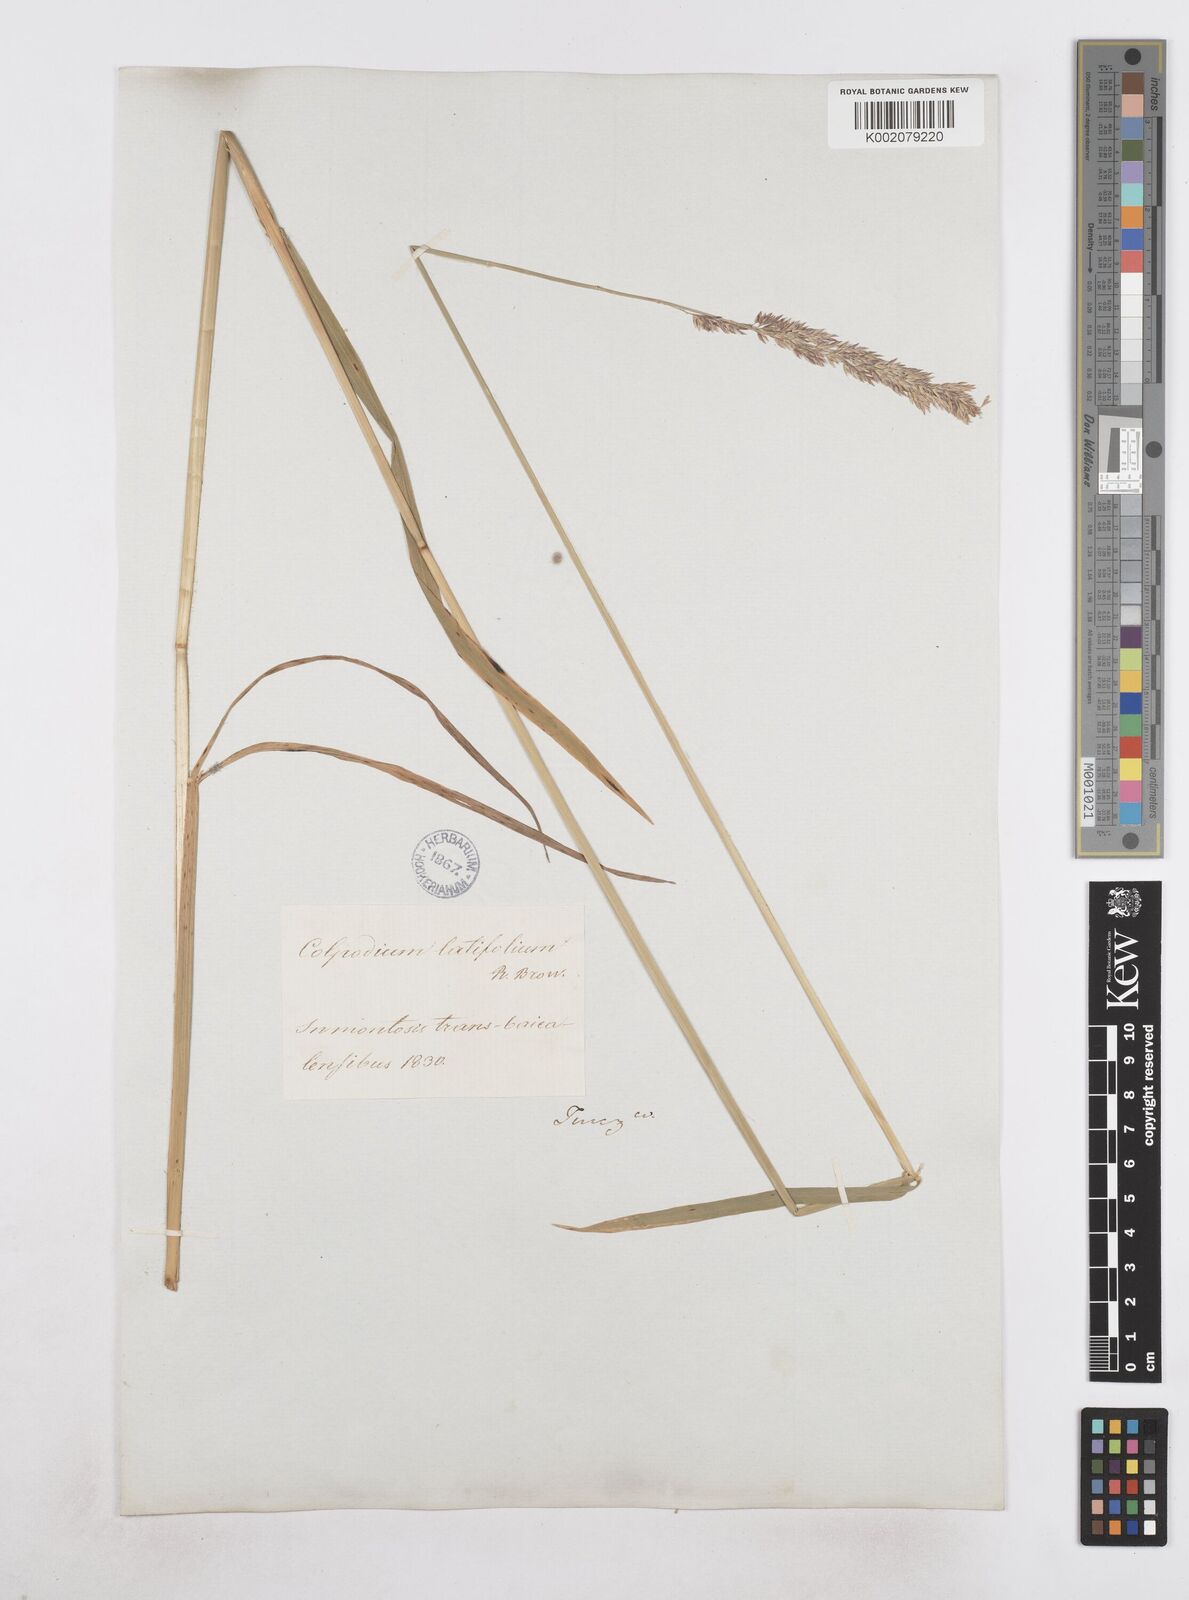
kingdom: Plantae
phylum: Tracheophyta
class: Liliopsida
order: Poales
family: Poaceae
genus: Arctagrostis
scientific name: Arctagrostis latifolia
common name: Arctic grass
